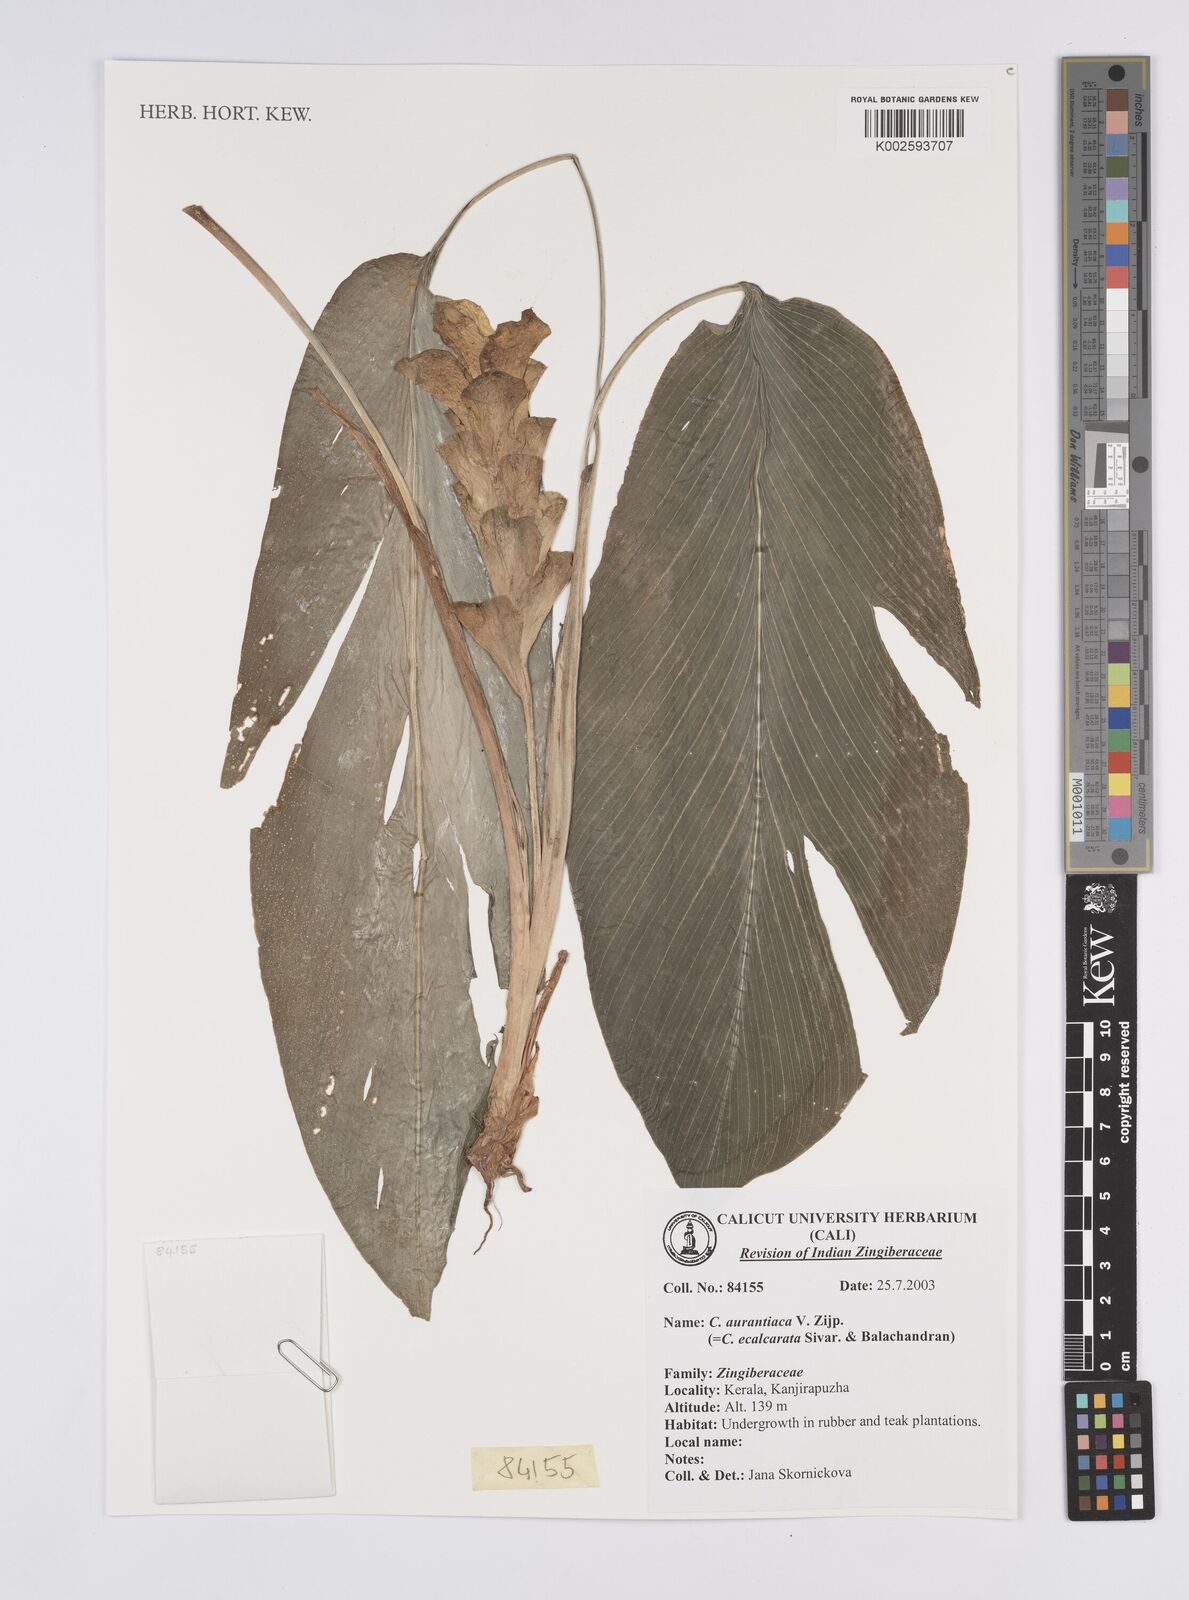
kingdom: Plantae
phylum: Tracheophyta
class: Liliopsida
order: Zingiberales
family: Zingiberaceae
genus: Curcuma
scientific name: Curcuma aurantiaca
